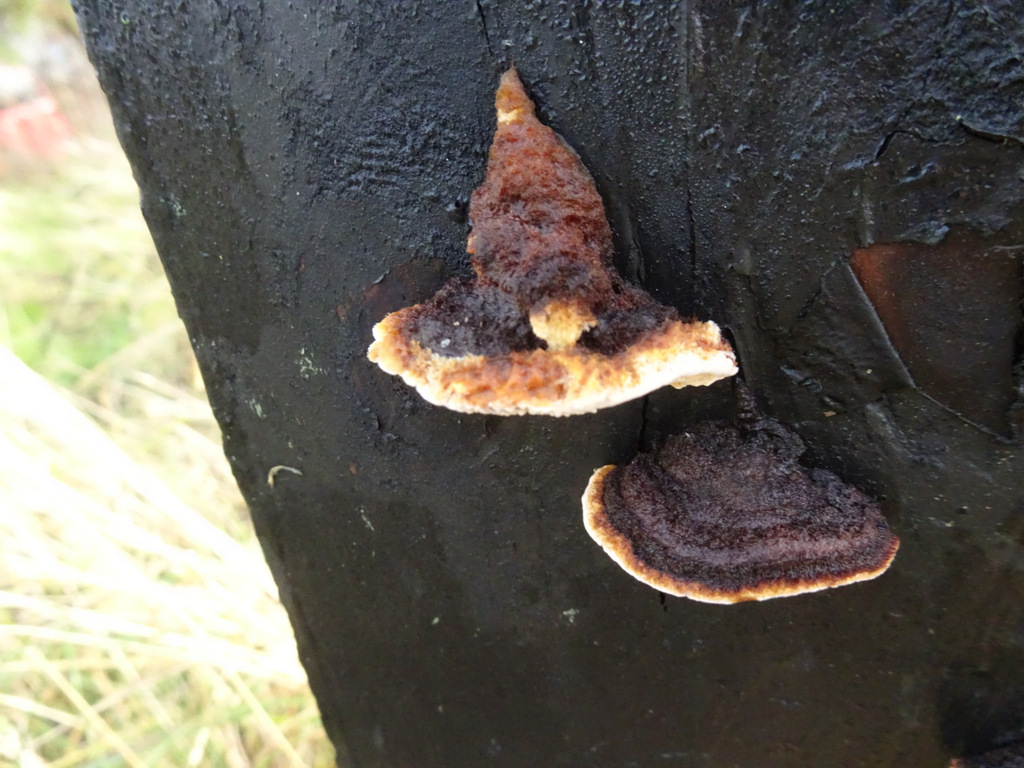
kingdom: Fungi
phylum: Basidiomycota
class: Agaricomycetes
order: Gloeophyllales
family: Gloeophyllaceae
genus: Gloeophyllum
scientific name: Gloeophyllum sepiarium
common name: fyrre-korkhat
